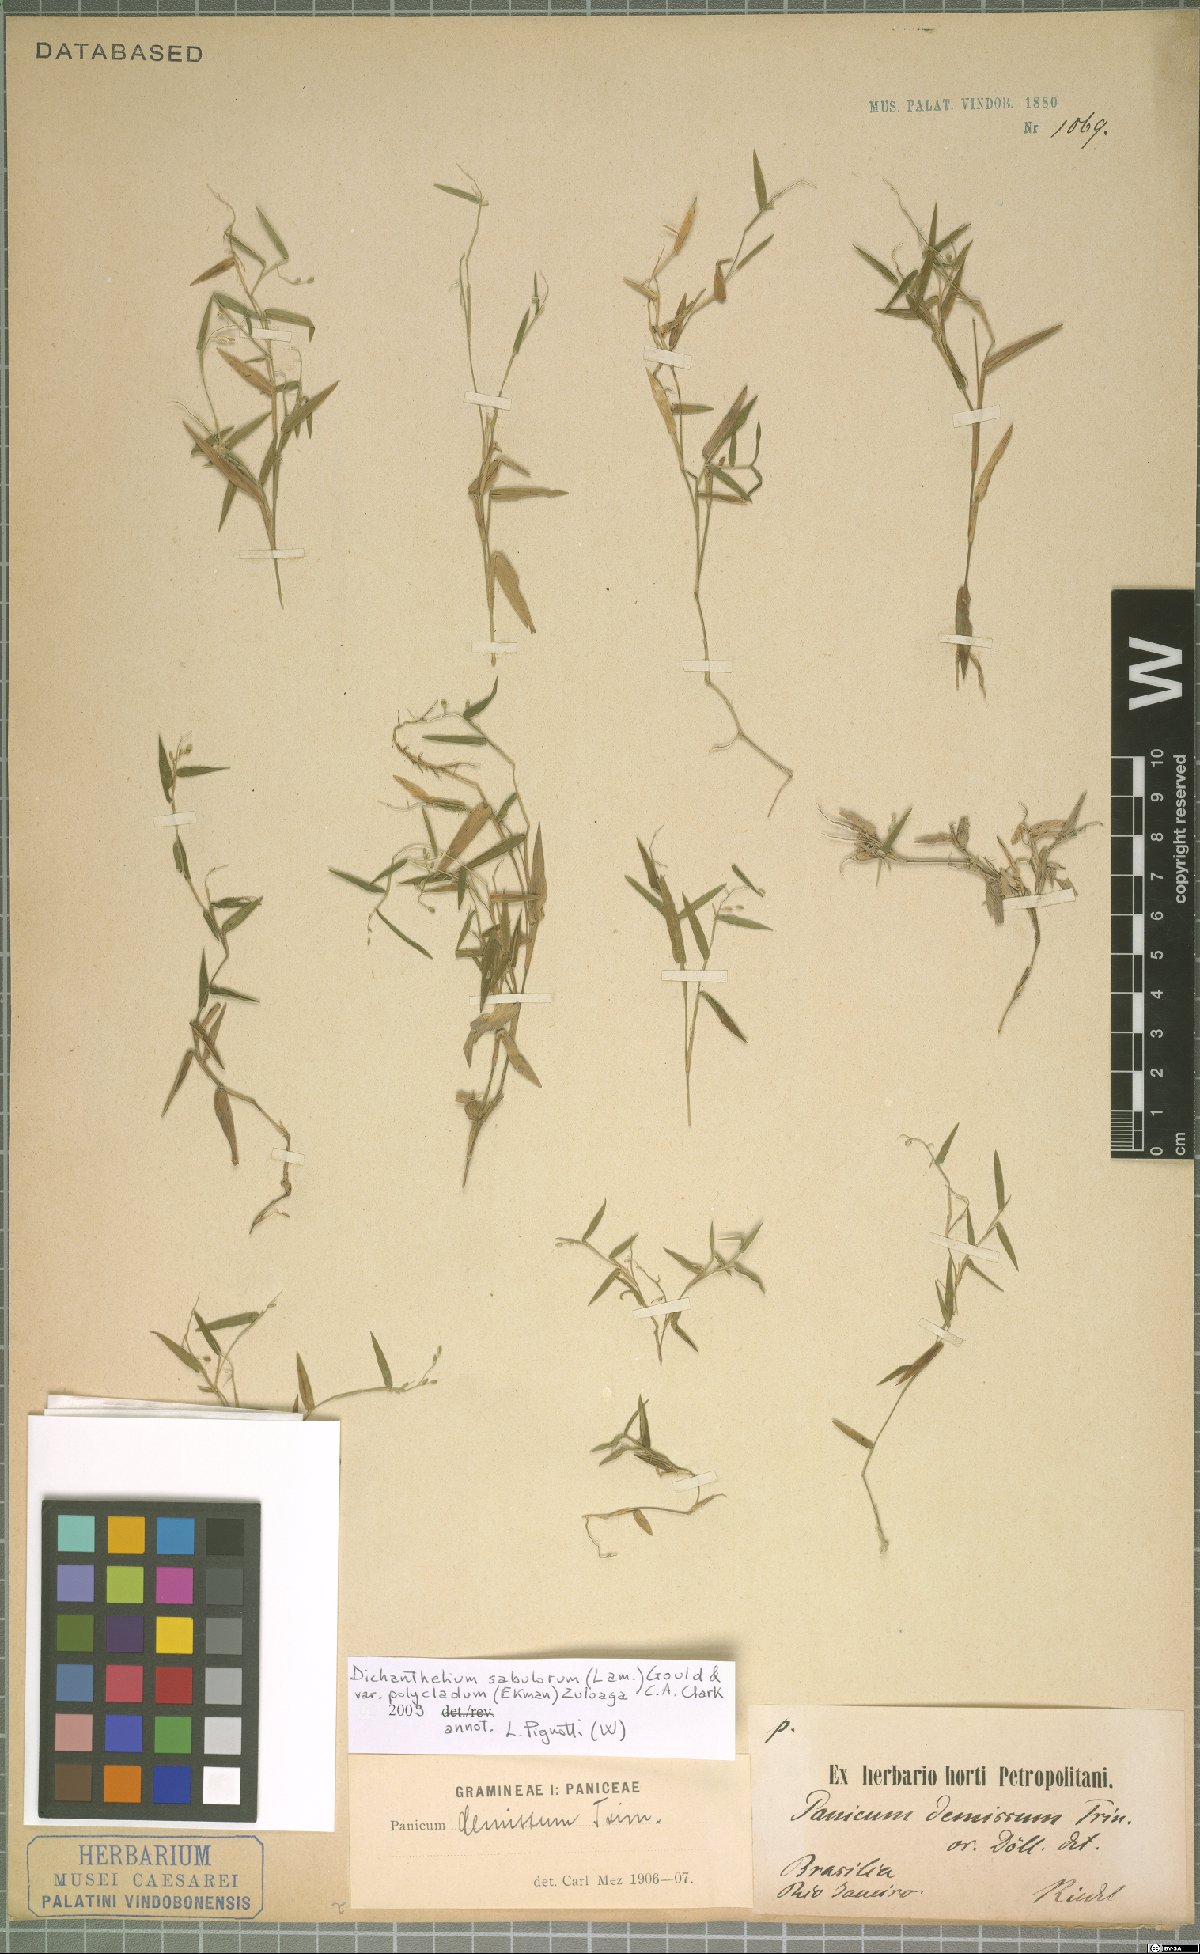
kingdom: Plantae
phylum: Tracheophyta
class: Liliopsida
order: Poales
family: Poaceae
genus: Dichanthelium
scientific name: Dichanthelium sabulorum
